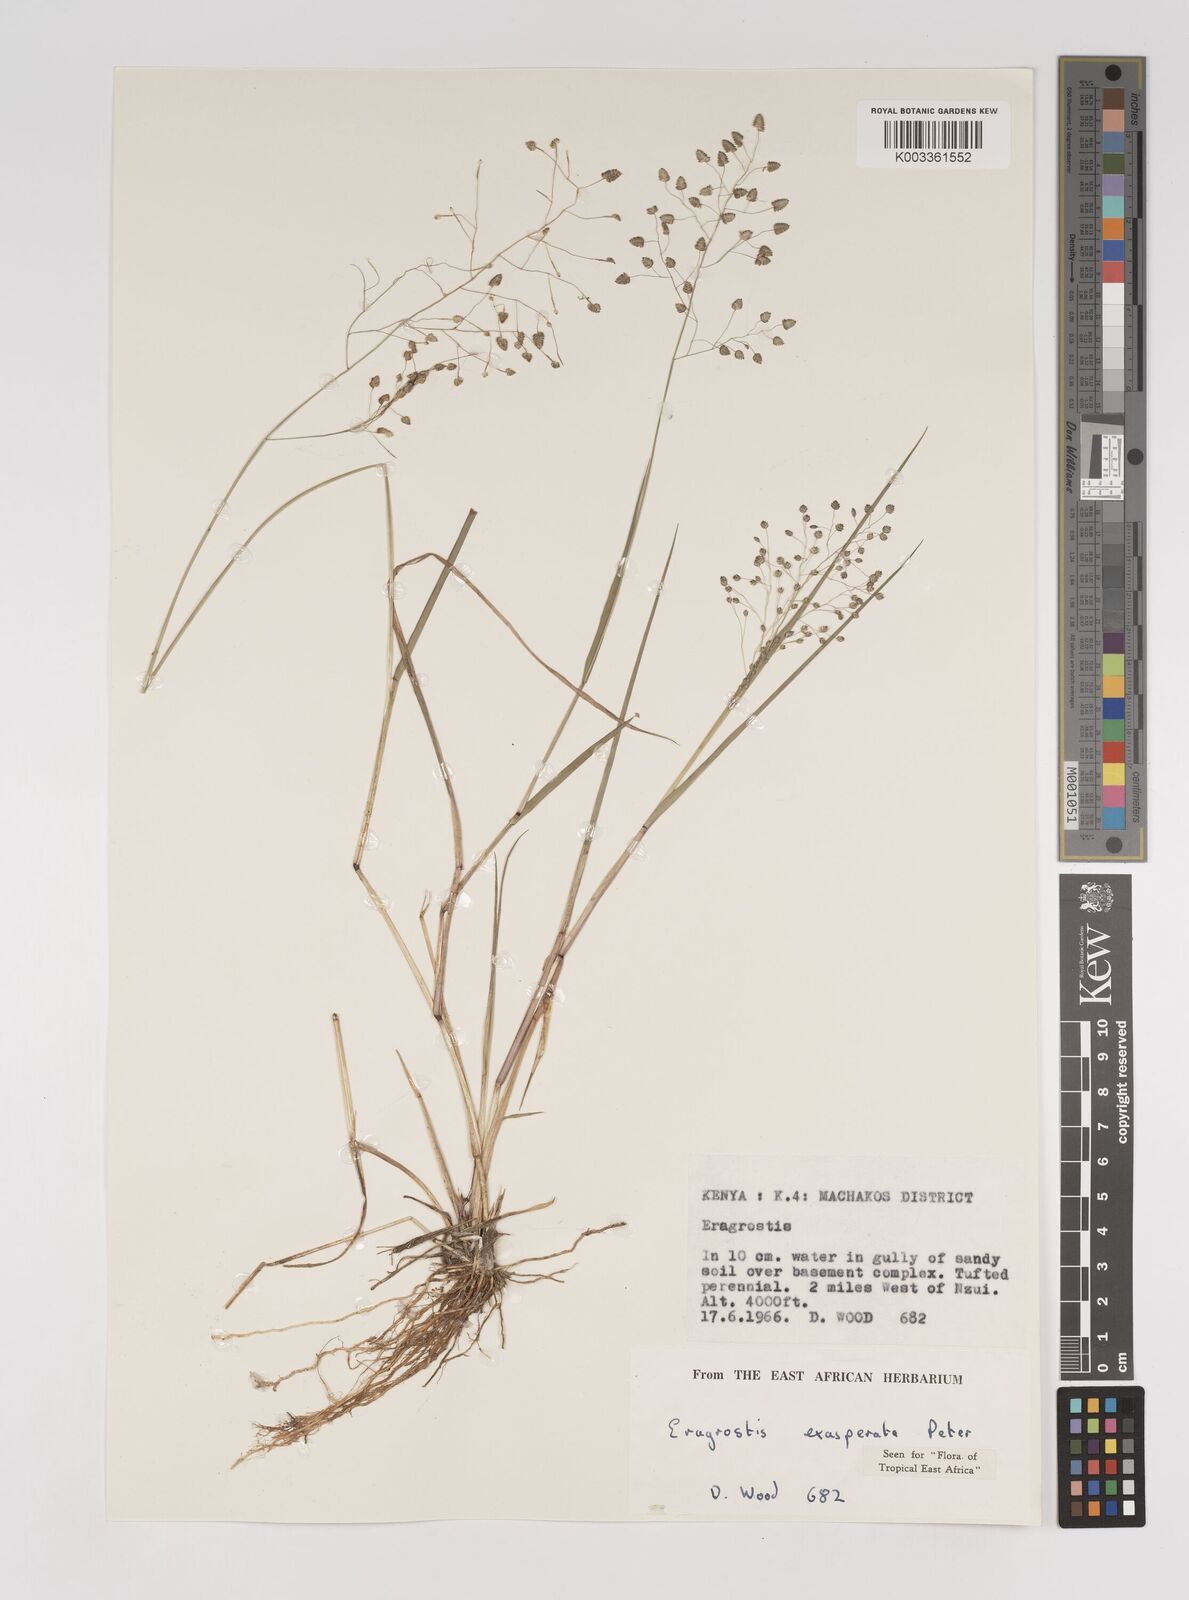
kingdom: Plantae
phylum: Tracheophyta
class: Liliopsida
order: Poales
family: Poaceae
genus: Eragrostis
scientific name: Eragrostis exasperata
